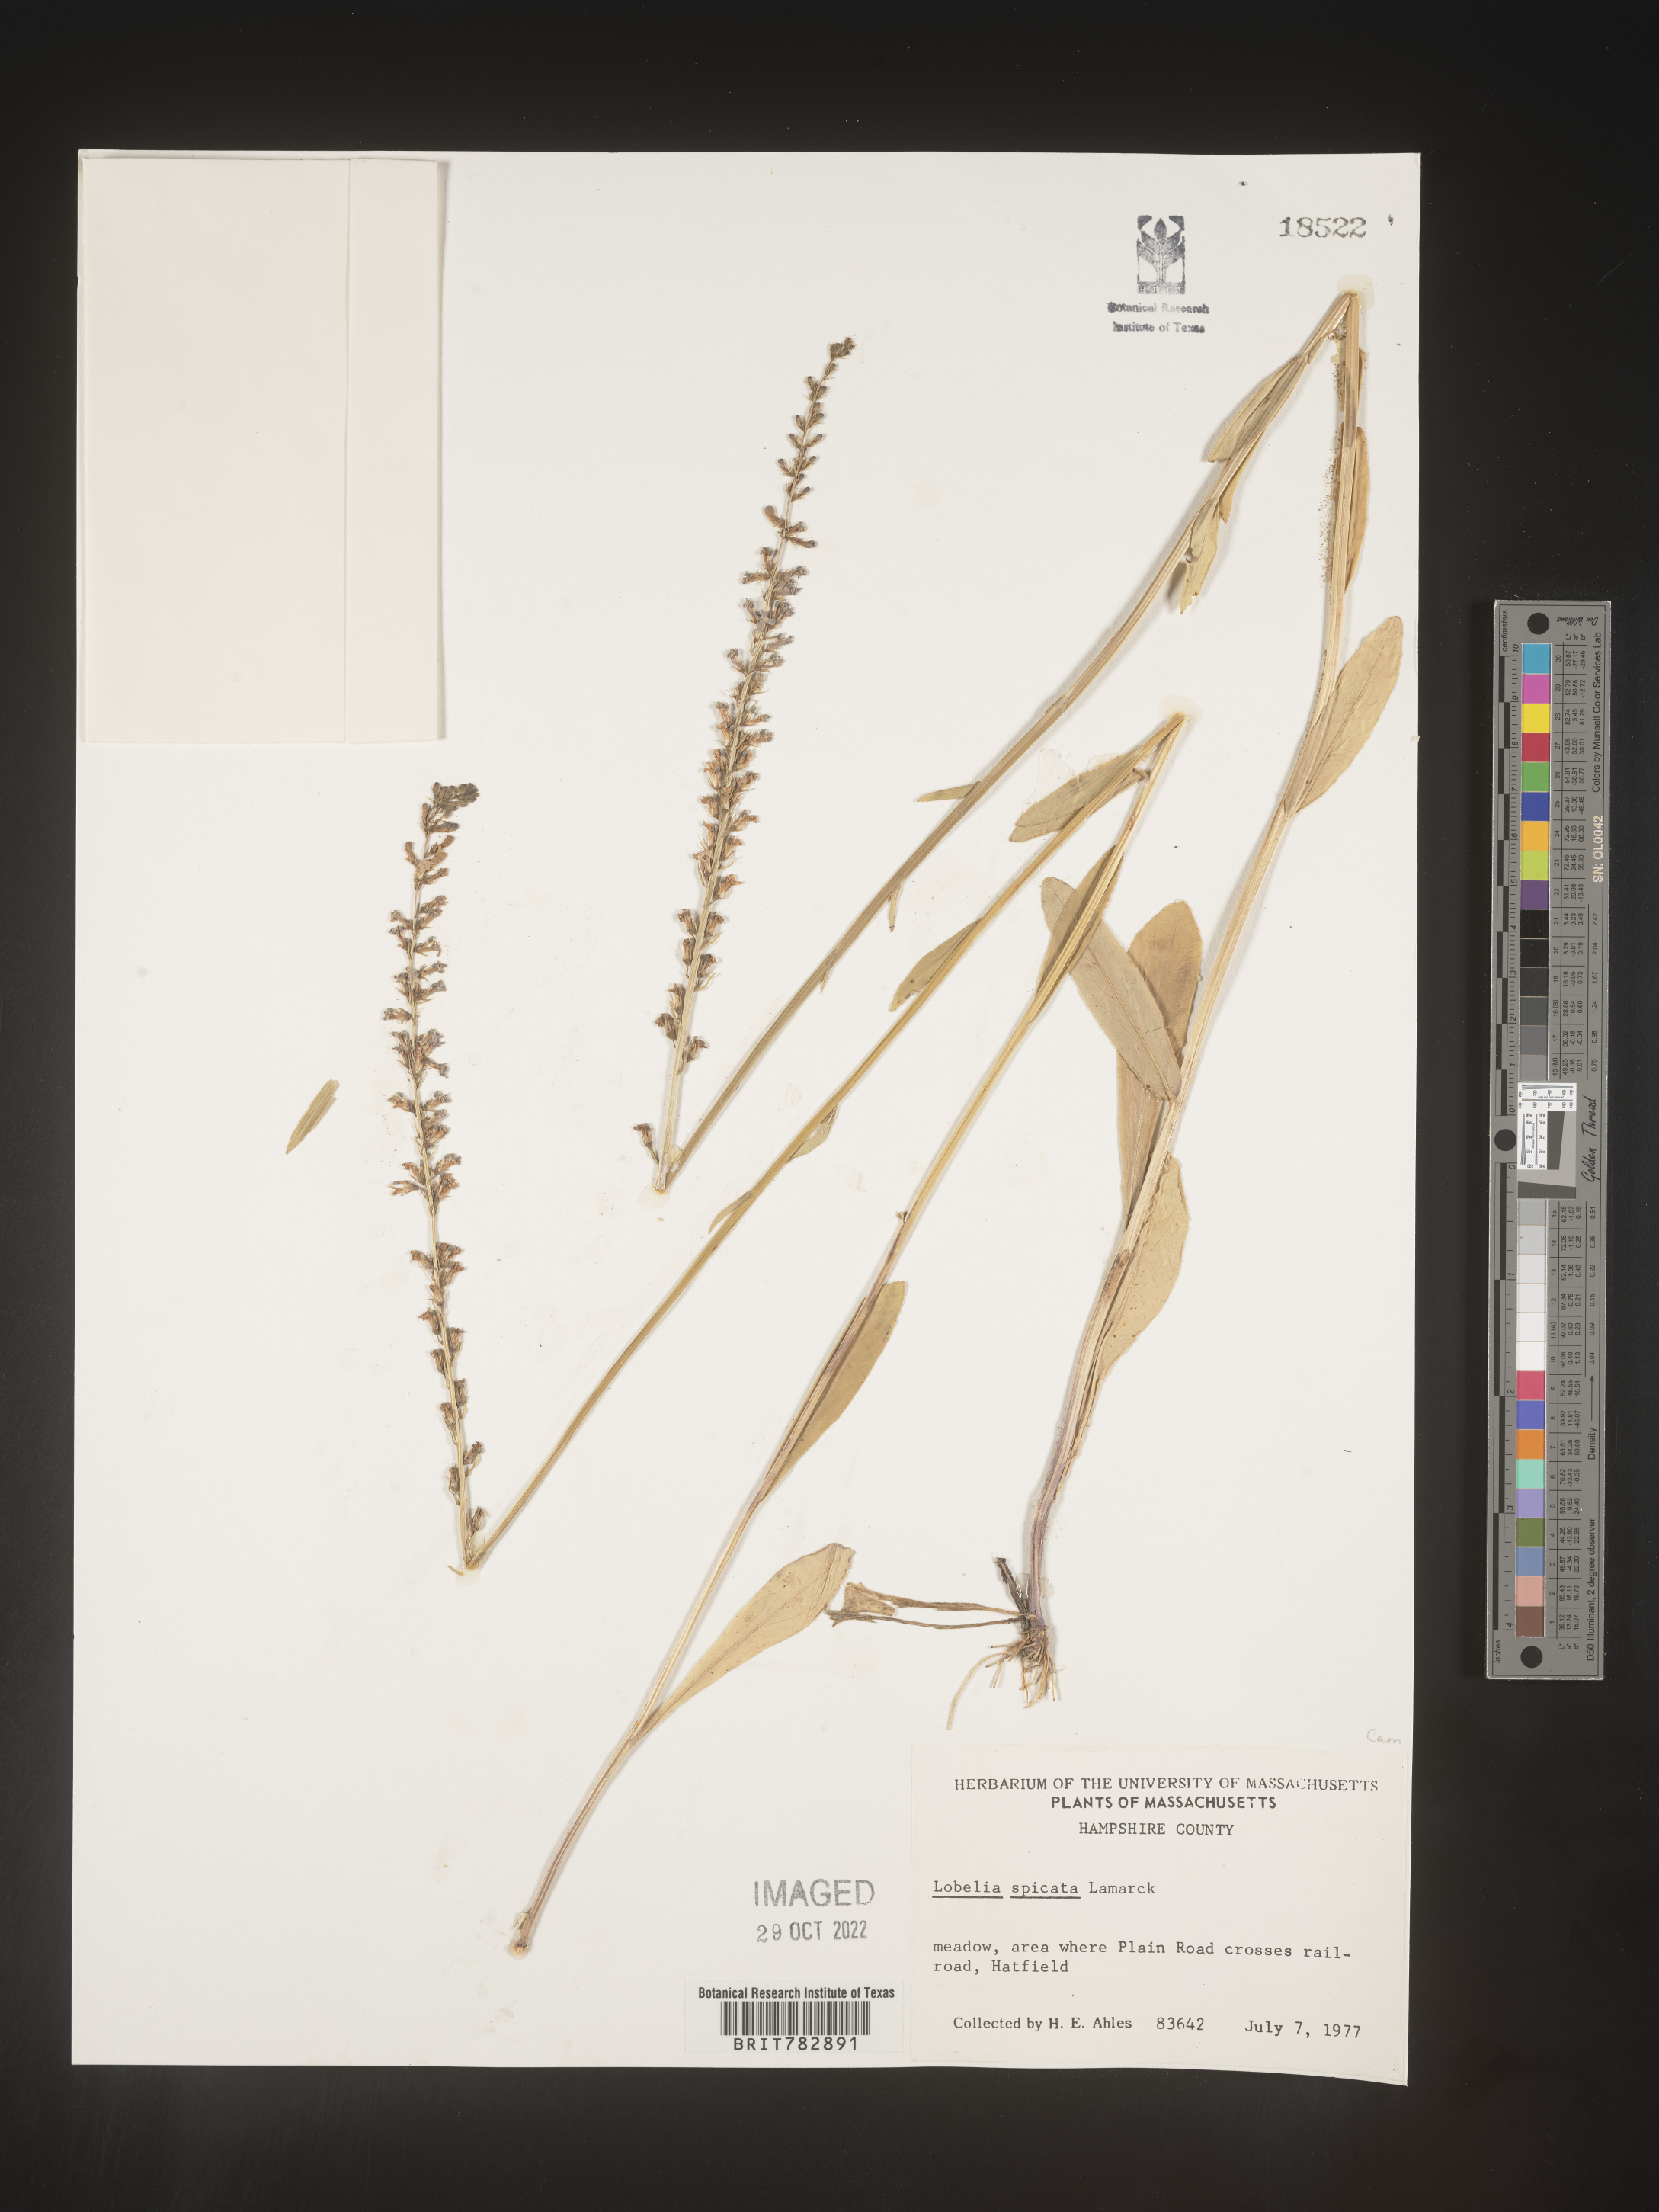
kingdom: Plantae
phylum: Tracheophyta
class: Magnoliopsida
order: Asterales
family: Campanulaceae
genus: Lobelia
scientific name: Lobelia spicata
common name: Pale-spike lobelia
